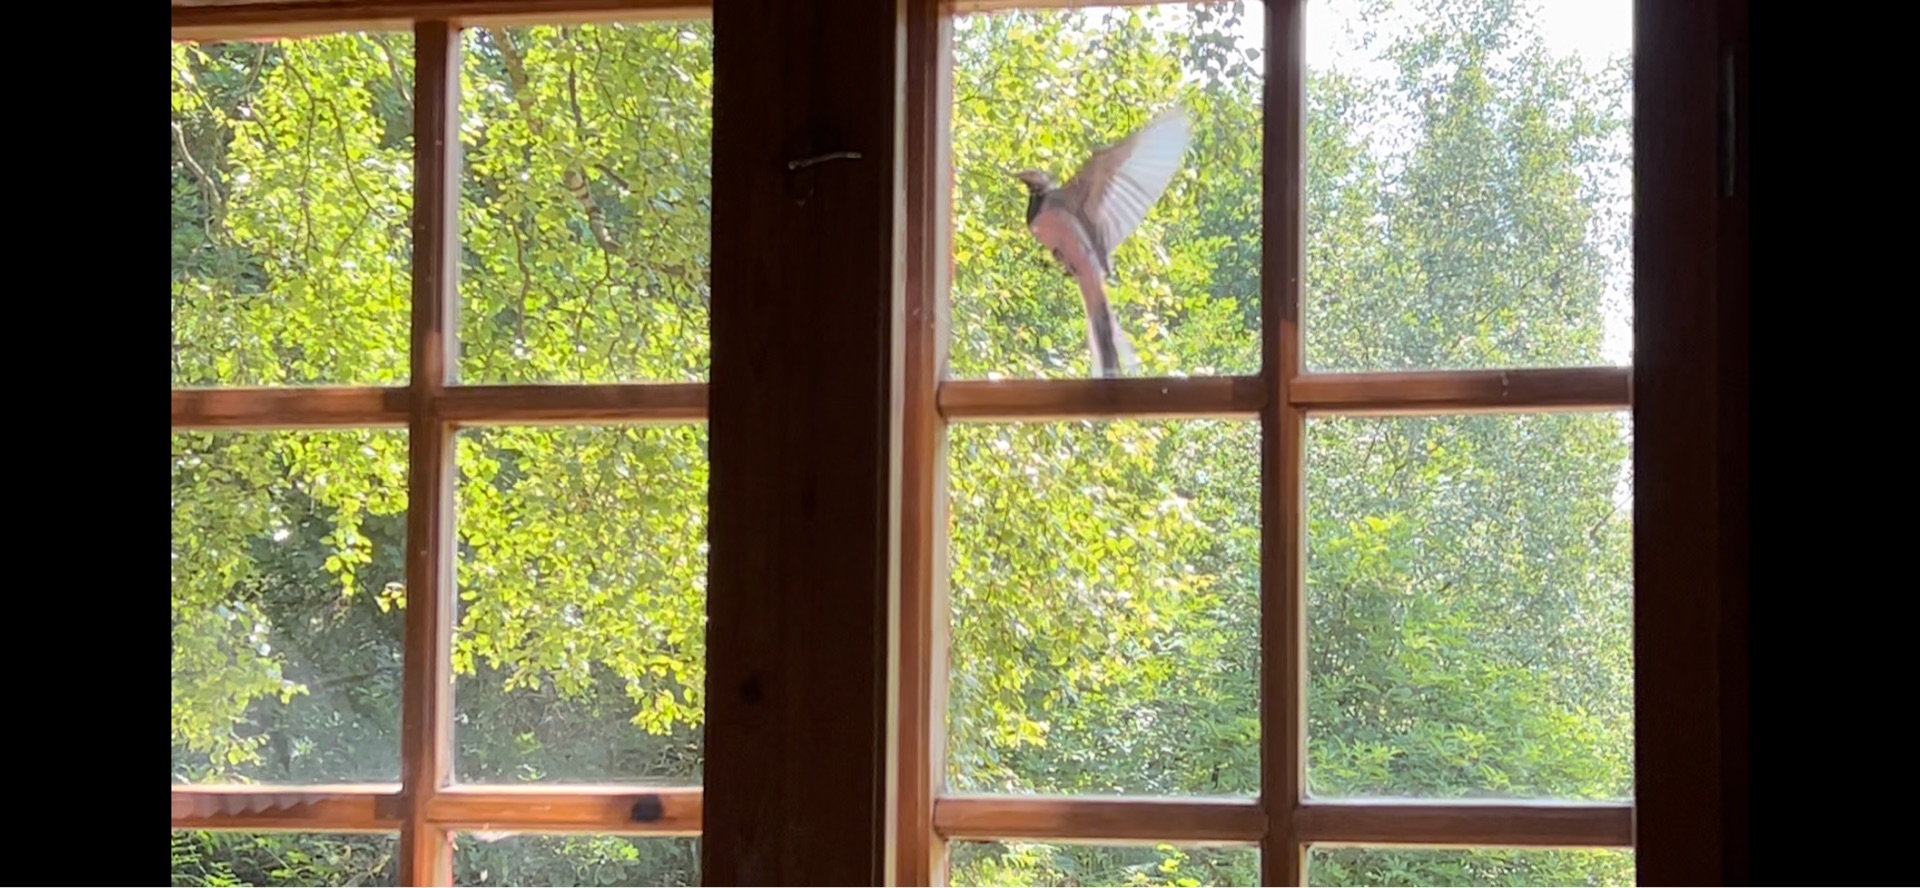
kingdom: Animalia
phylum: Chordata
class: Aves
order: Passeriformes
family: Motacillidae
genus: Motacilla
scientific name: Motacilla alba
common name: Hvid vipstjert
